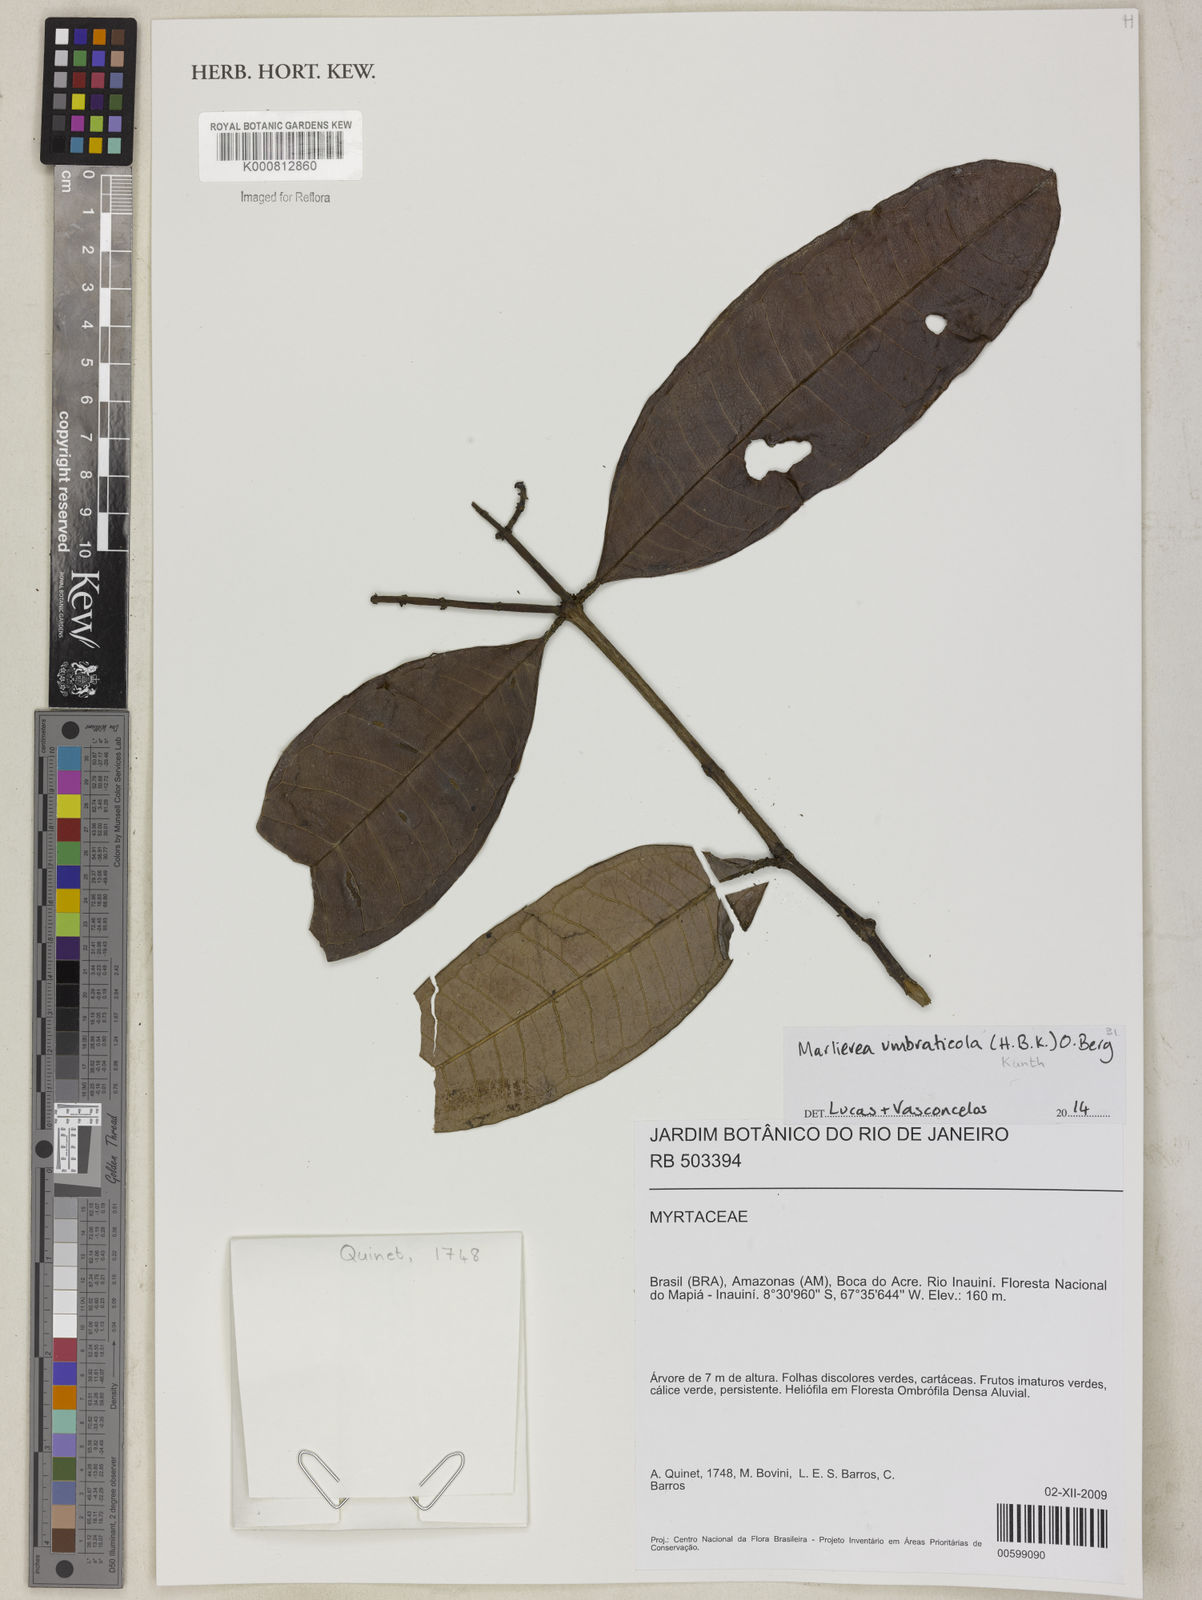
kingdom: Plantae
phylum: Tracheophyta
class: Magnoliopsida
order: Myrtales
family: Myrtaceae
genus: Myrcia
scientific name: Myrcia umbraticola
